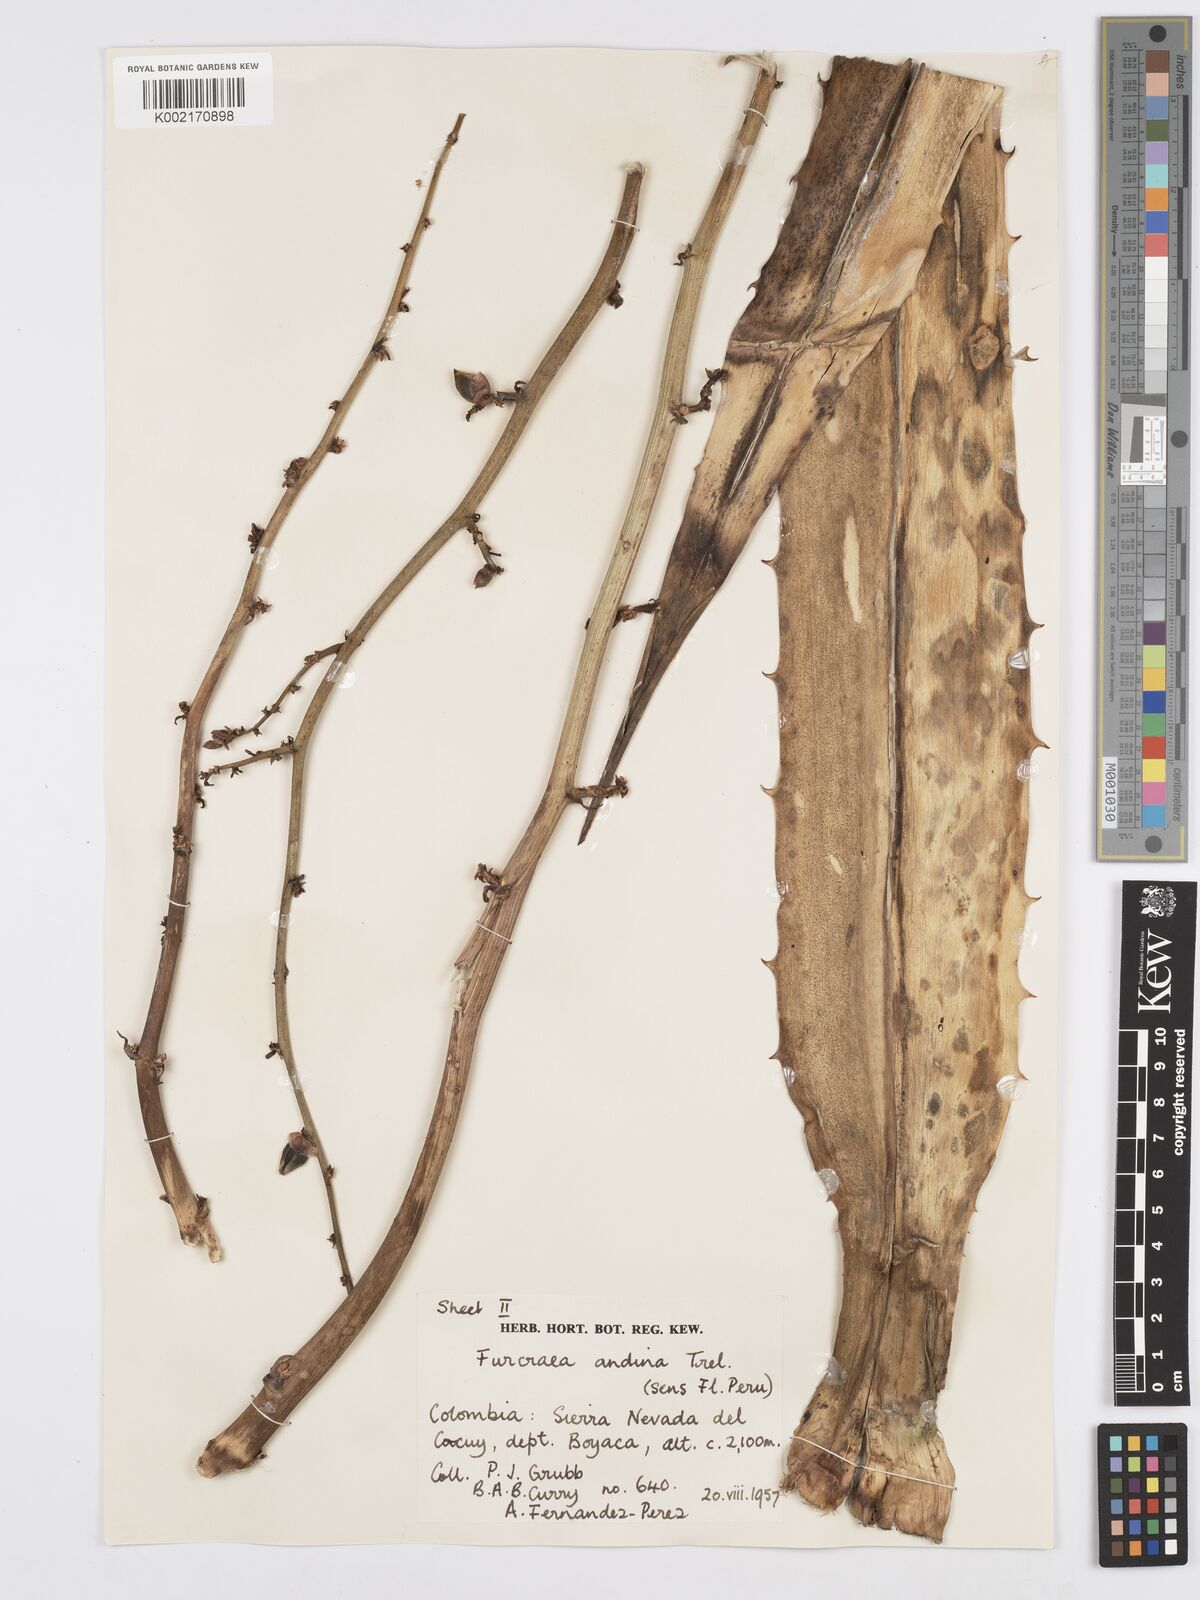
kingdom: Plantae
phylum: Tracheophyta
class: Liliopsida
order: Asparagales
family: Asparagaceae
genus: Furcraea
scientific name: Furcraea andina
